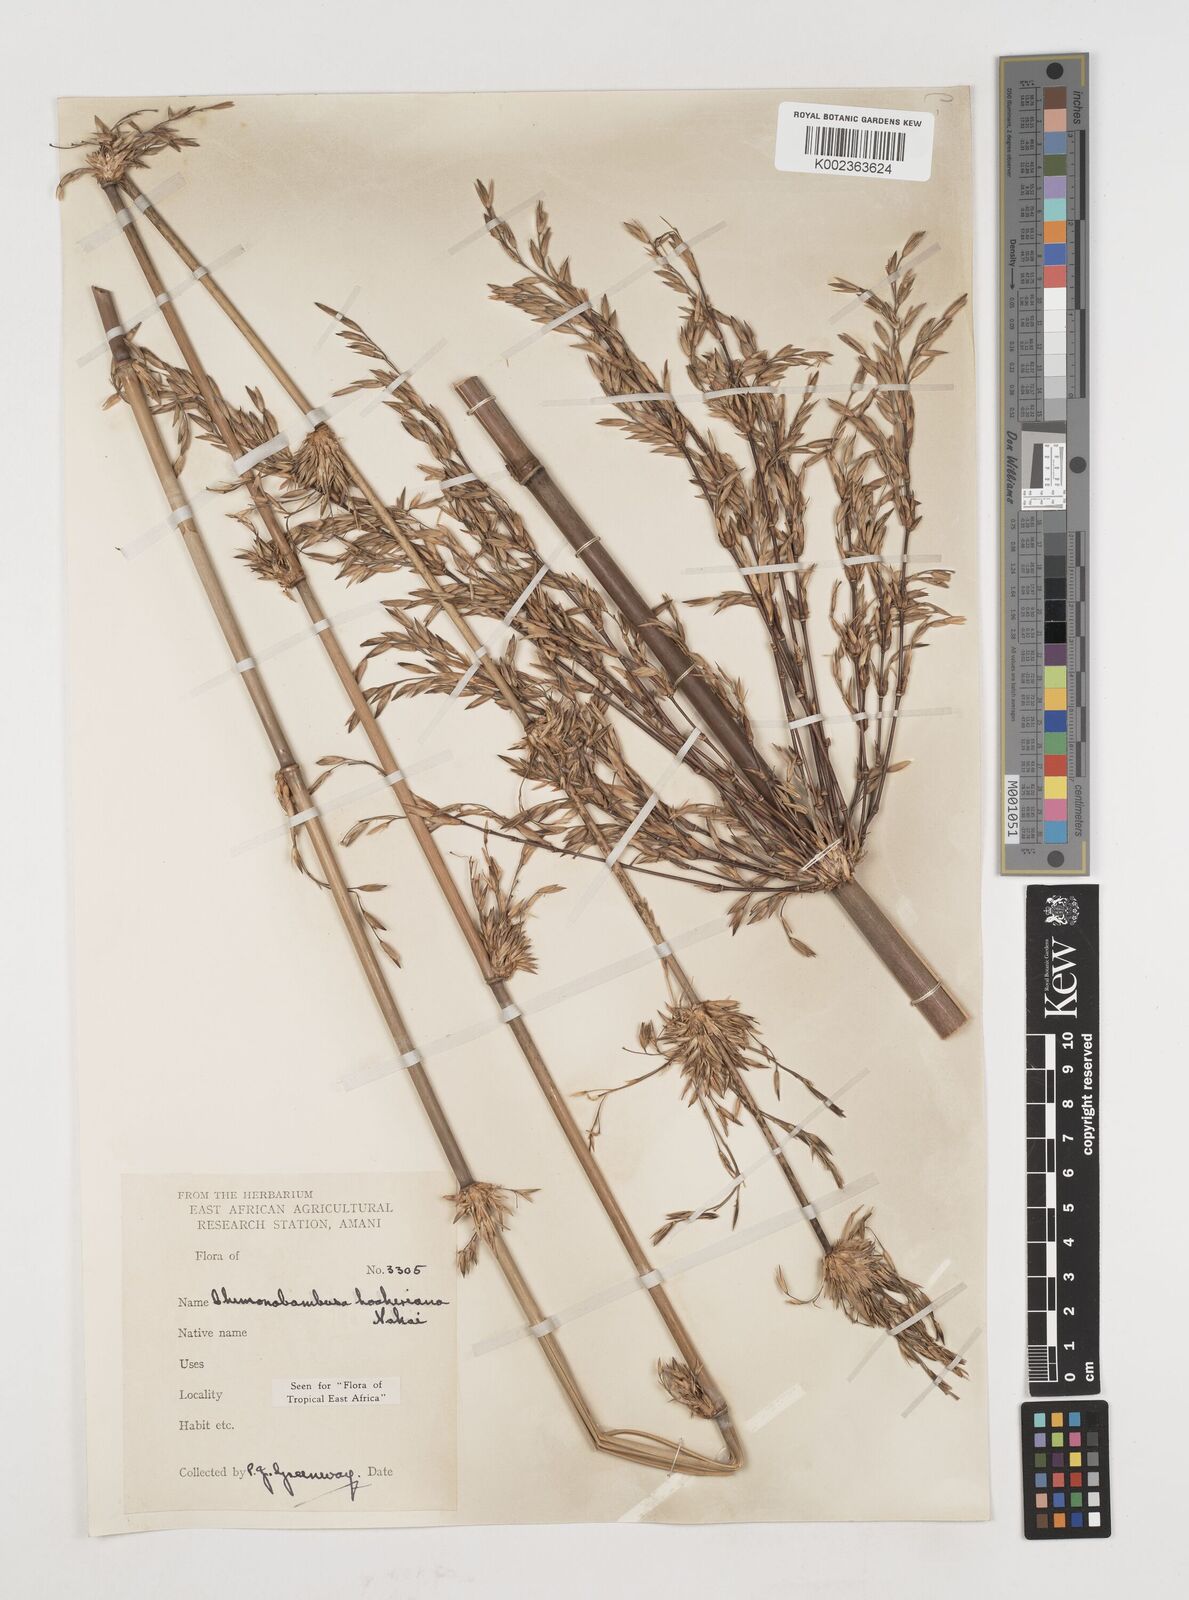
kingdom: Plantae
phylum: Tracheophyta
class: Liliopsida
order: Poales
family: Poaceae
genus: Himalayacalamus
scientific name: Himalayacalamus hookerianus
